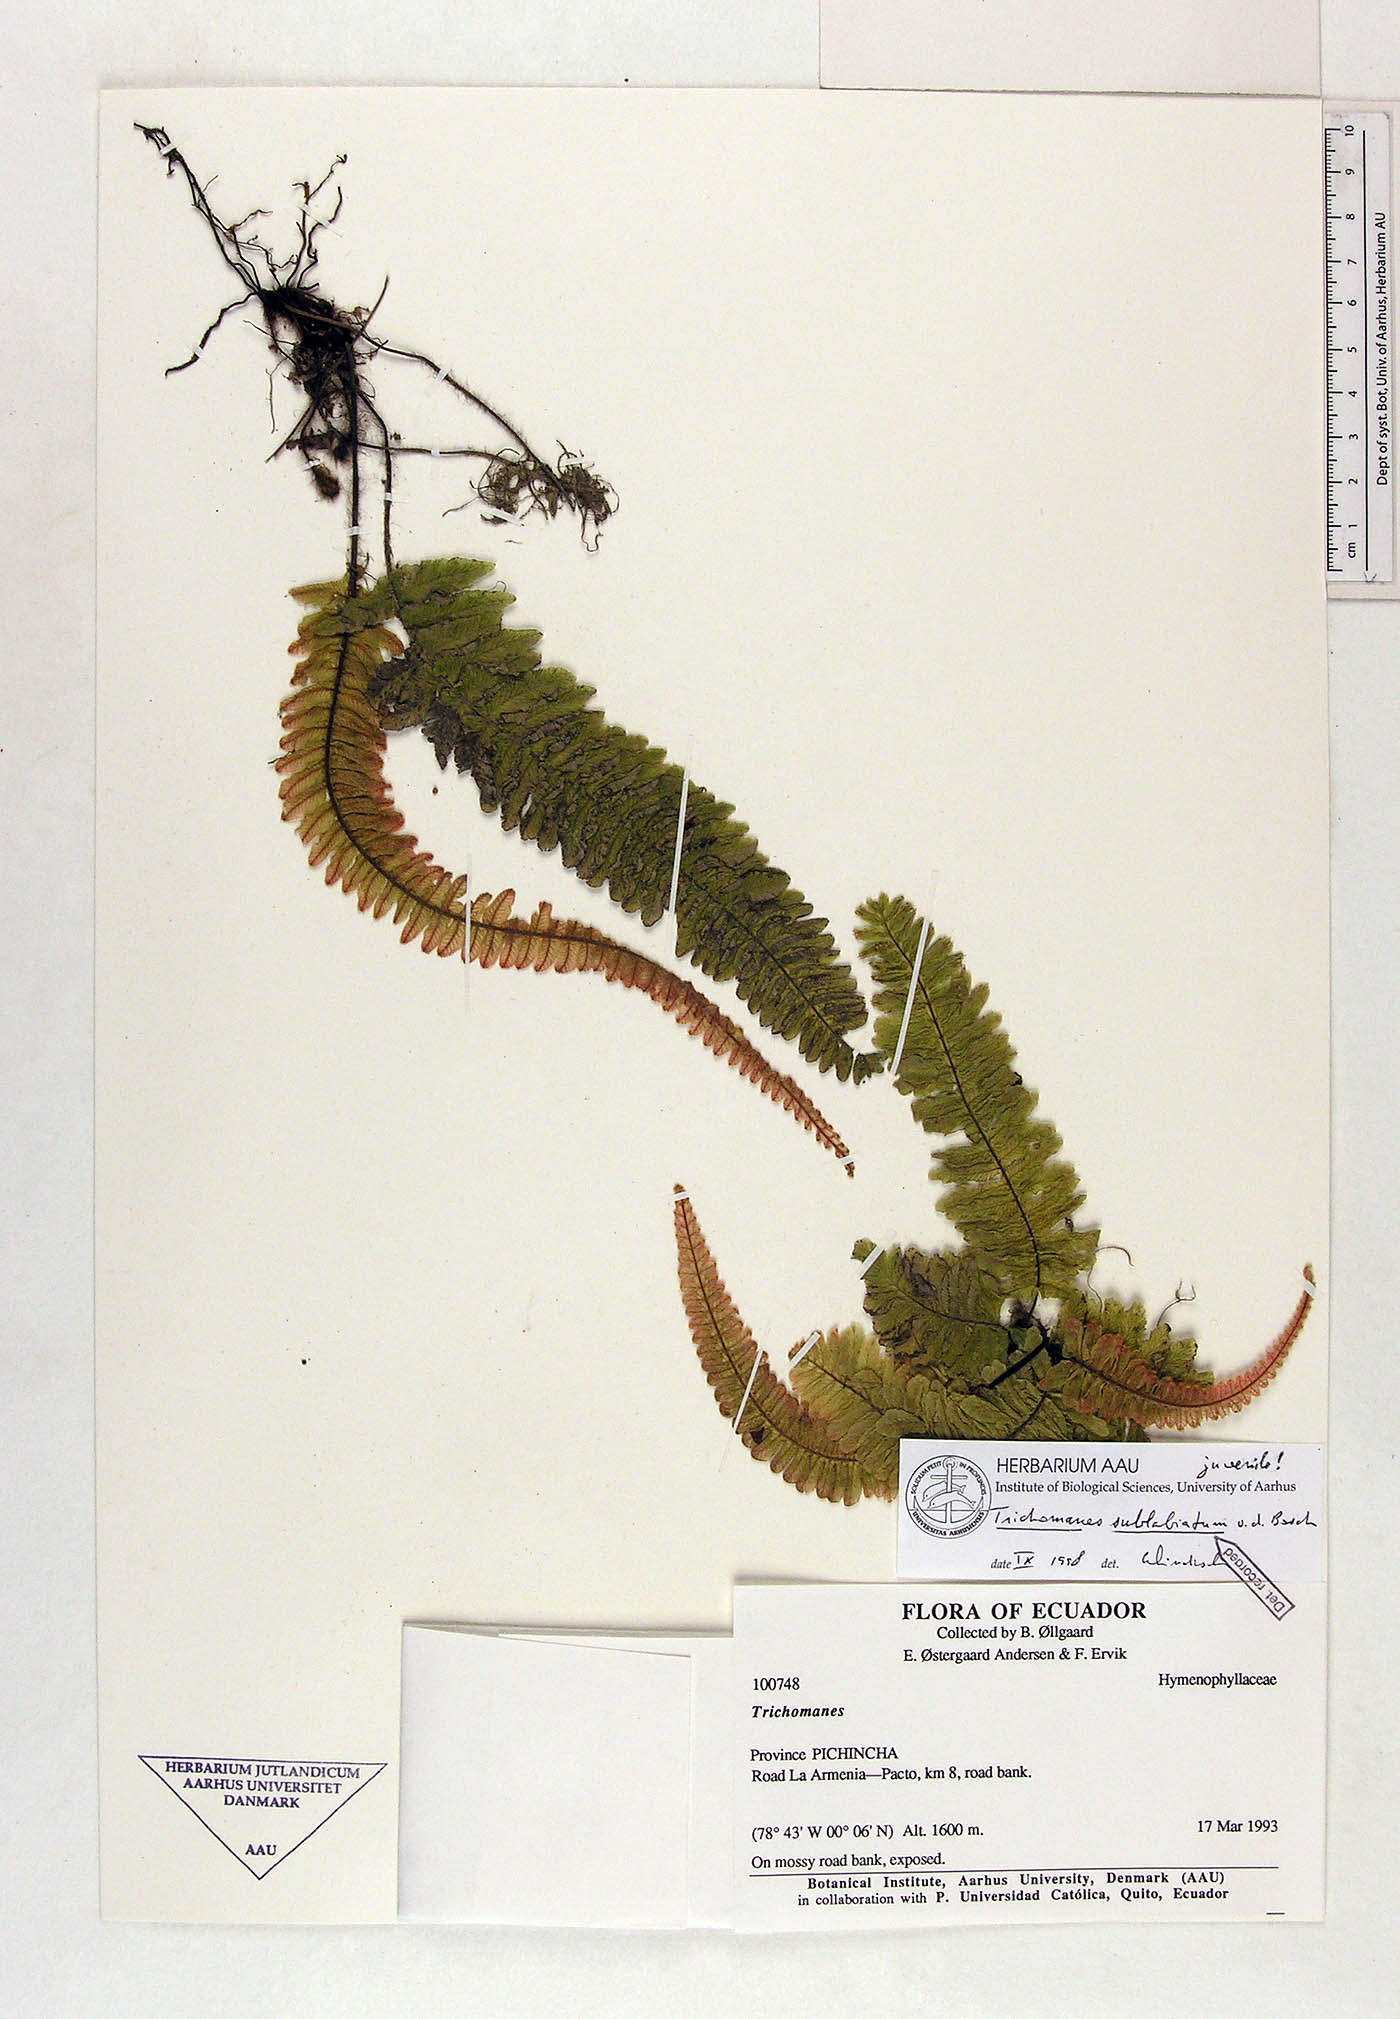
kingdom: Plantae
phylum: Tracheophyta
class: Polypodiopsida
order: Hymenophyllales
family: Hymenophyllaceae
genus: Trichomanes
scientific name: Trichomanes sublabiatum
